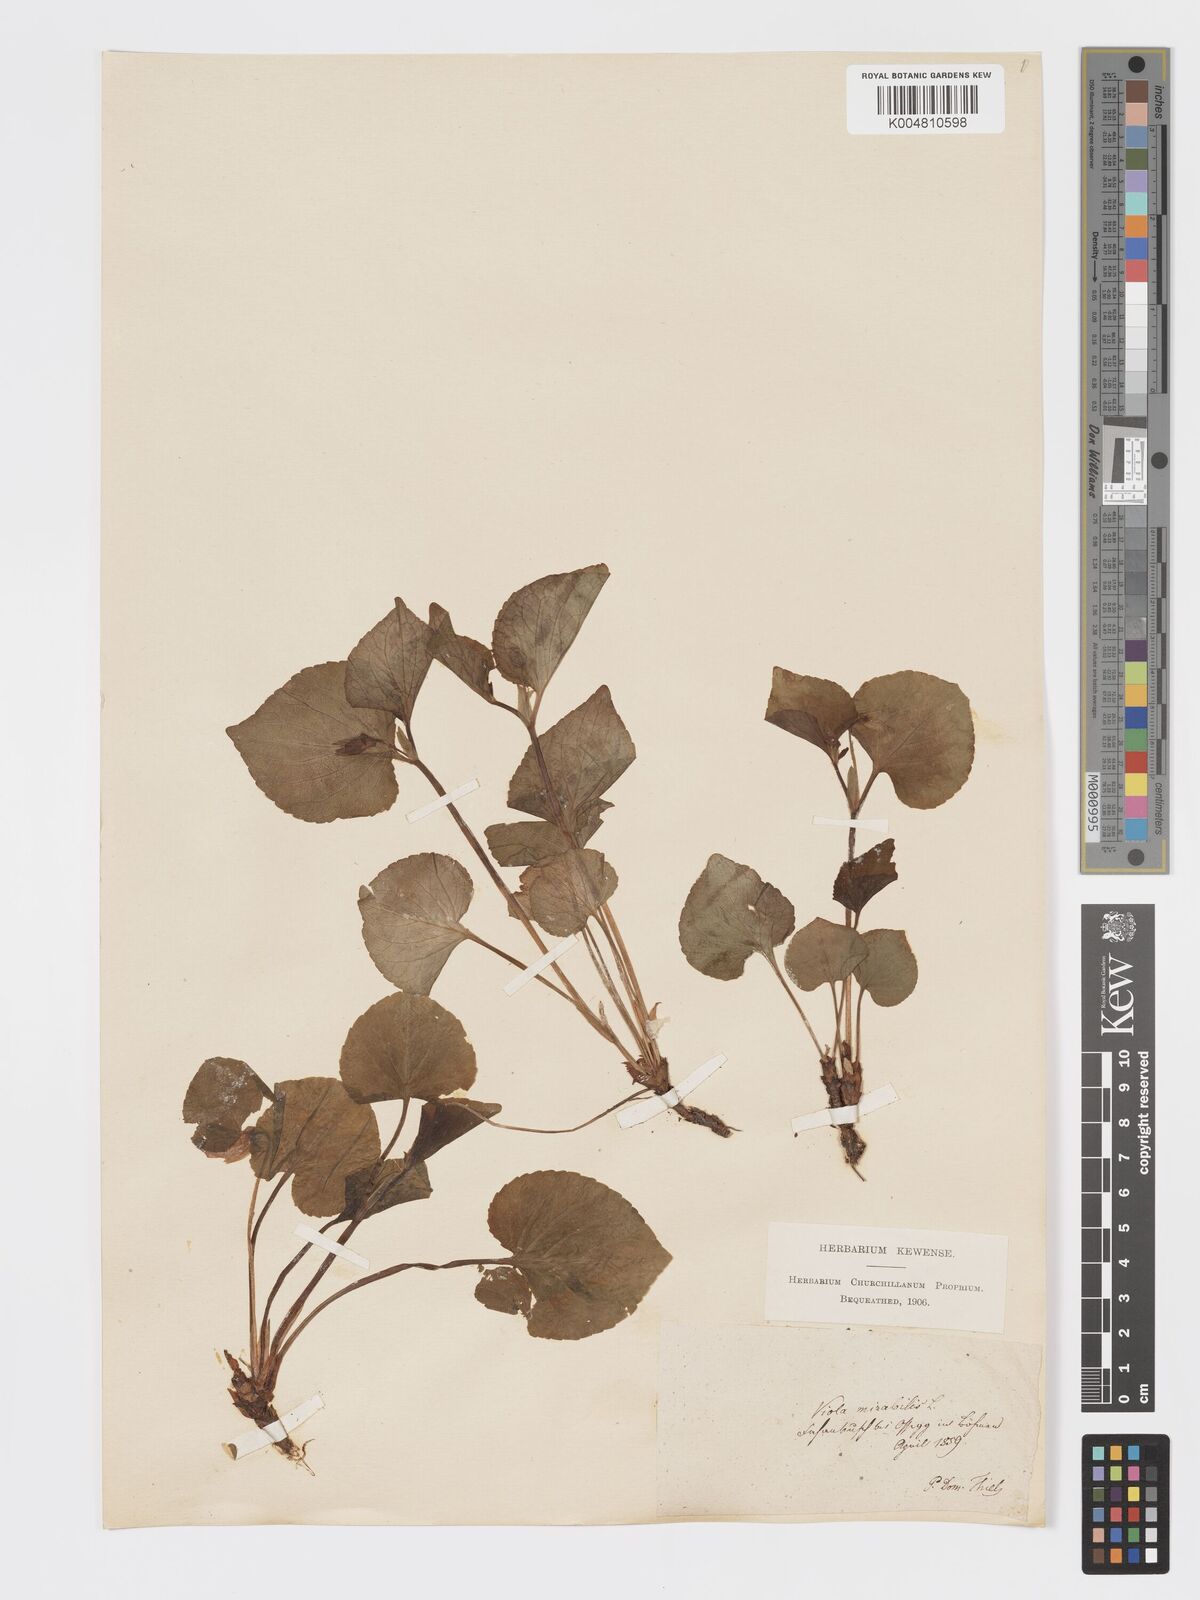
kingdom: Plantae
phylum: Tracheophyta
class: Magnoliopsida
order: Malpighiales
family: Violaceae
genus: Viola
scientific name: Viola mirabilis
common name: Wonder violet
